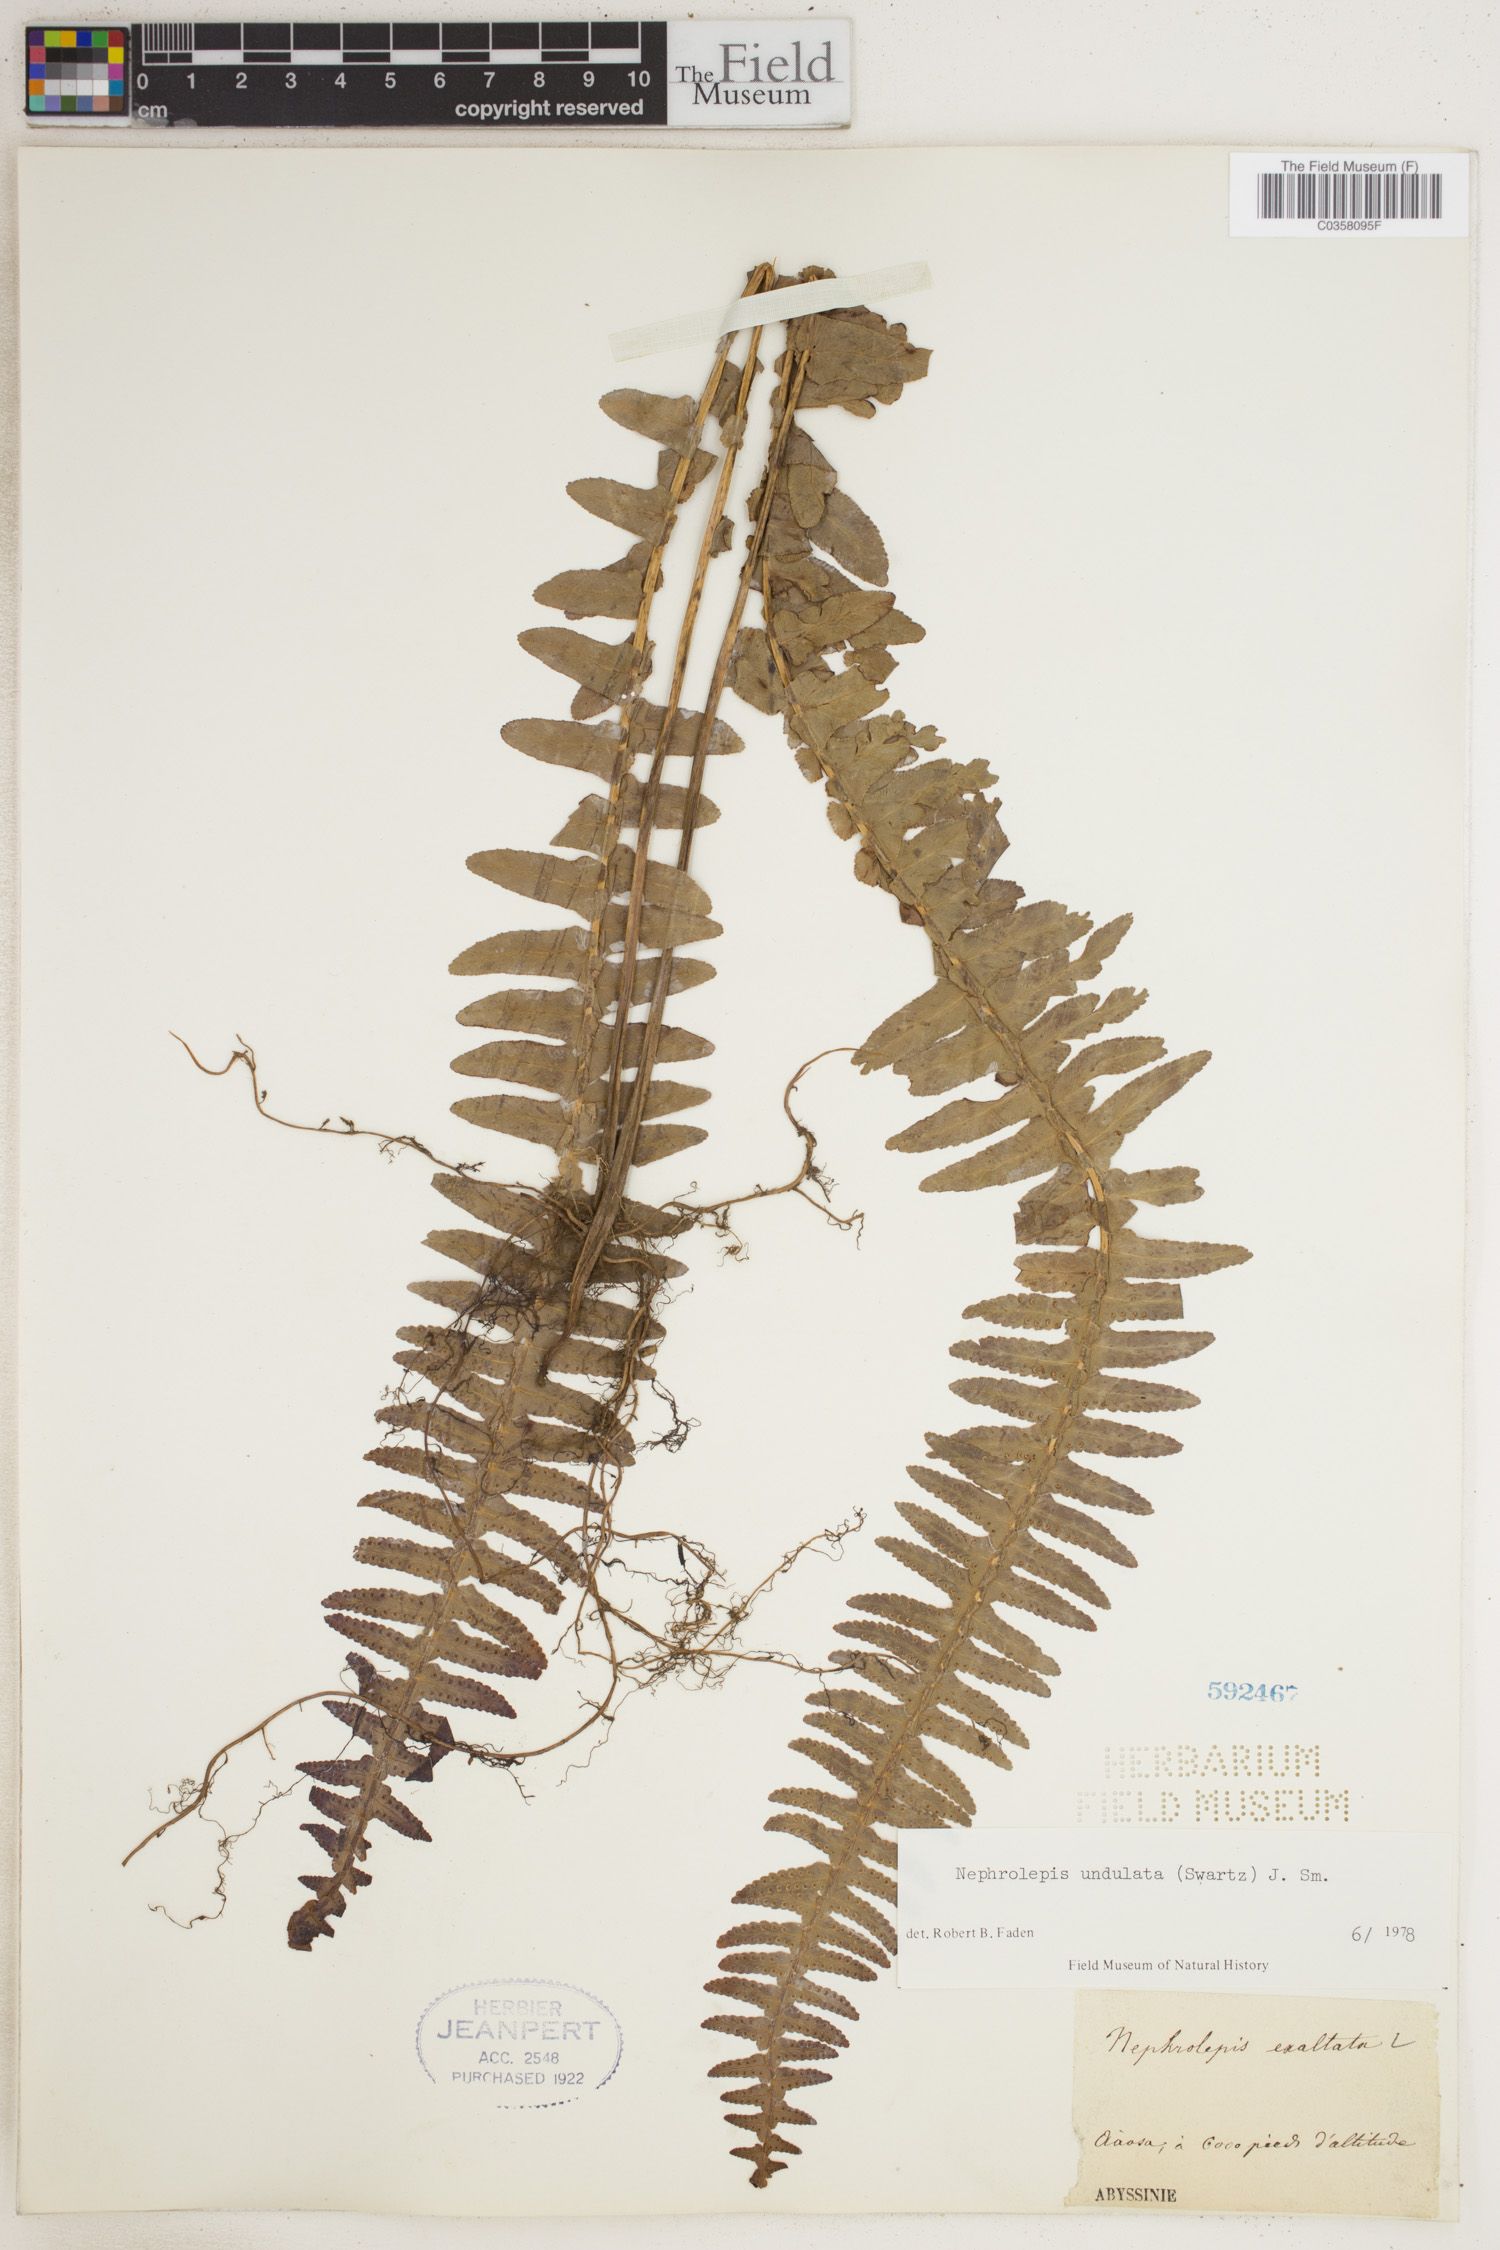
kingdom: Plantae
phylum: Tracheophyta
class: Polypodiopsida
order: Polypodiales
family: Nephrolepidaceae
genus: Nephrolepis
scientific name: Nephrolepis undulata
